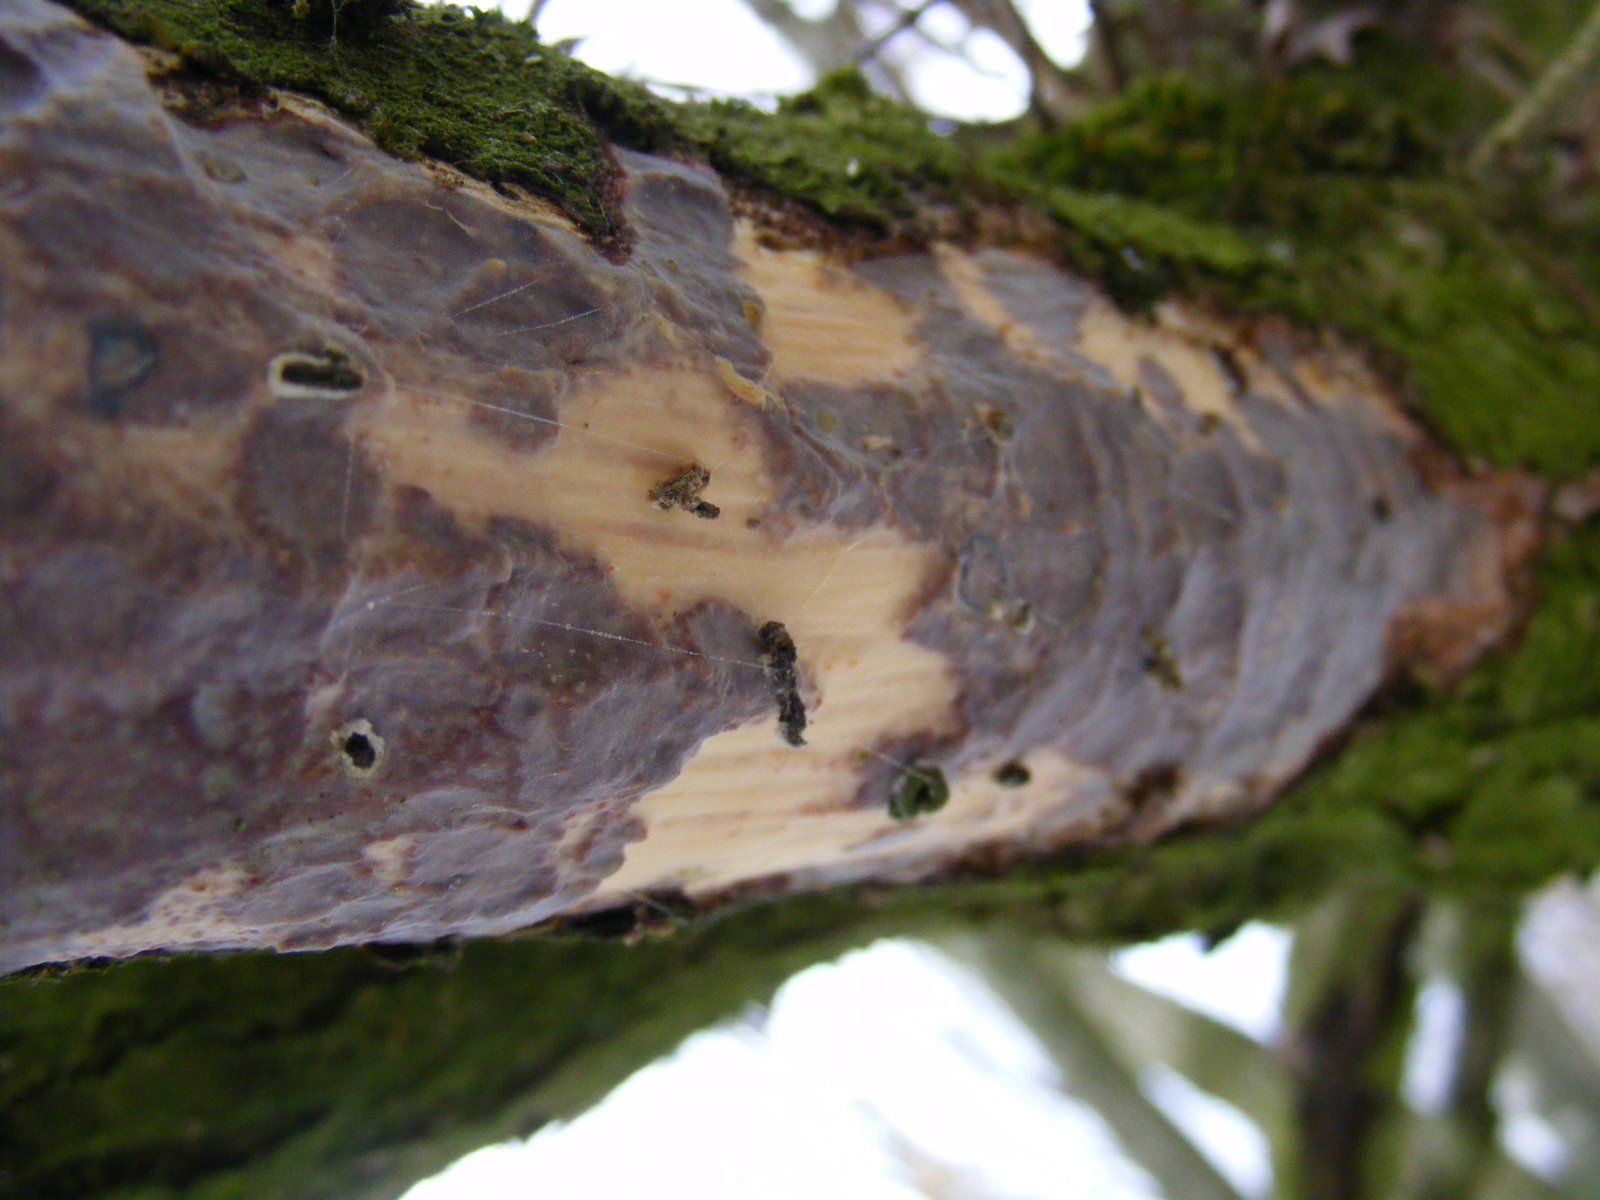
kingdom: Fungi
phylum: Basidiomycota
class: Agaricomycetes
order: Corticiales
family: Vuilleminiaceae
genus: Vuilleminia
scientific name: Vuilleminia comedens
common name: almindelig barksprænger
